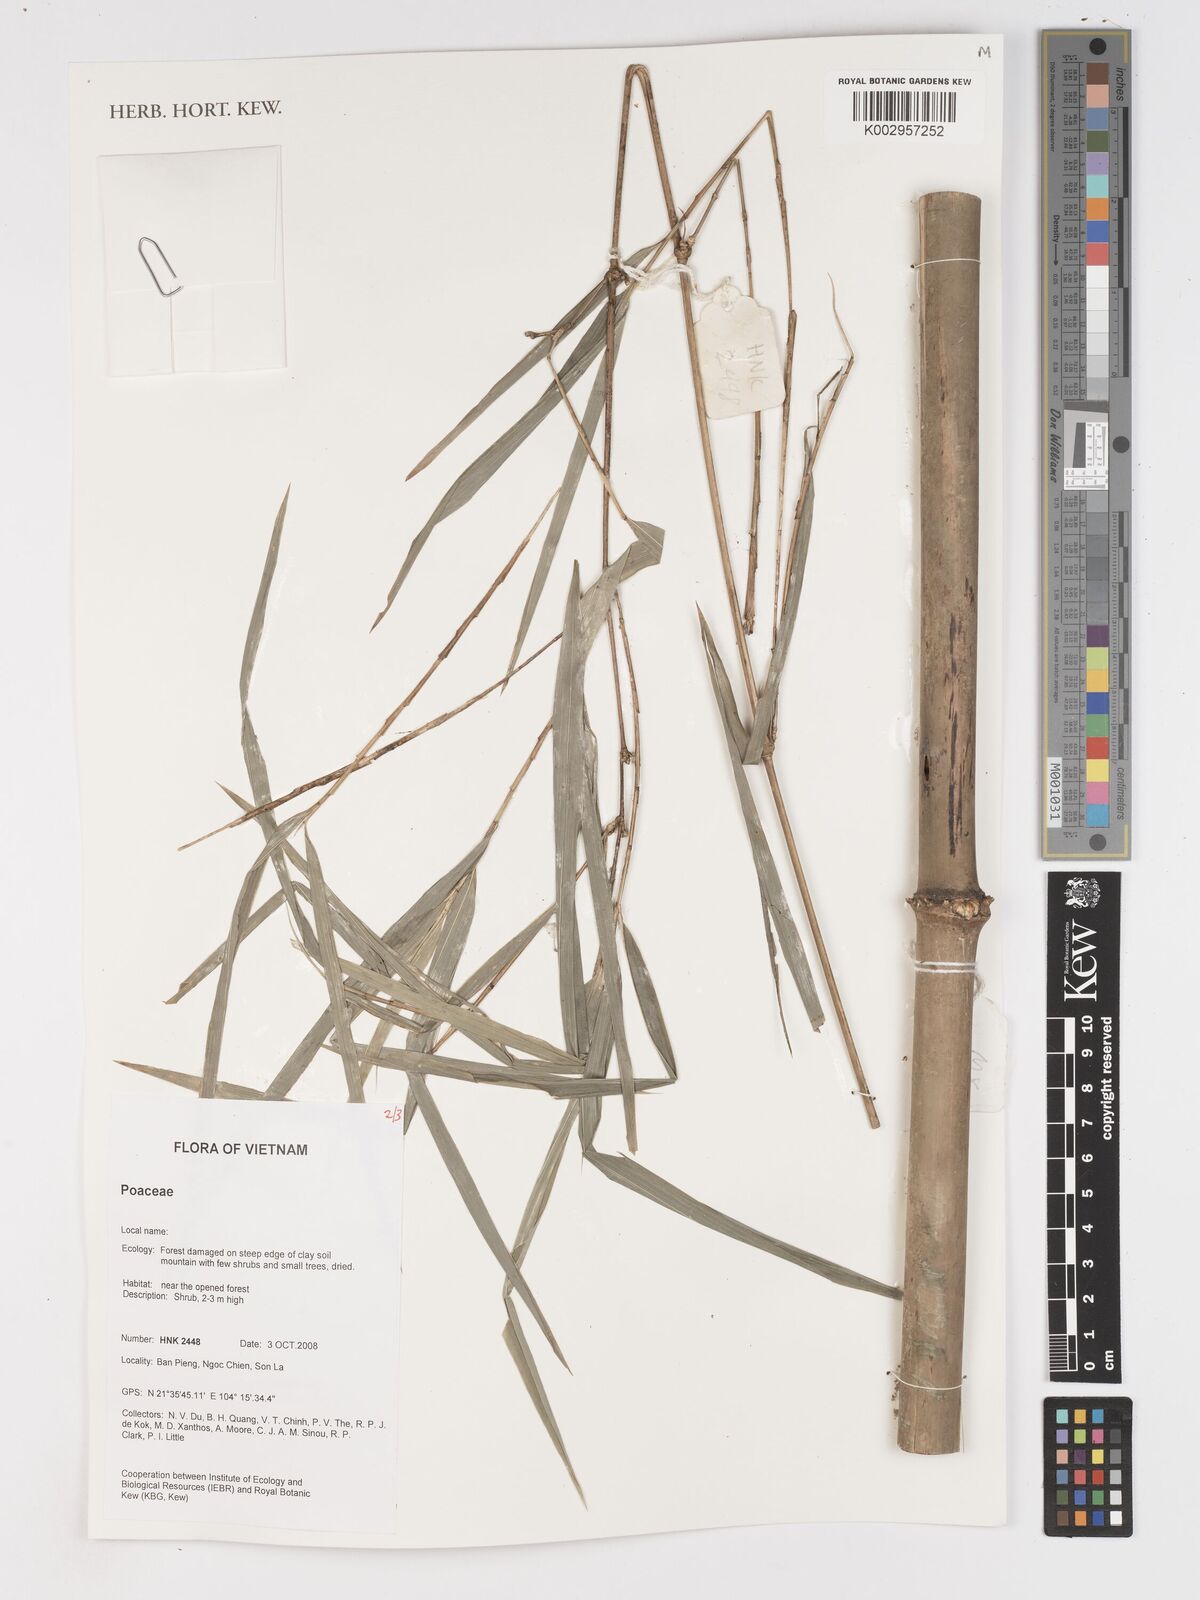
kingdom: Plantae
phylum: Tracheophyta
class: Liliopsida
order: Poales
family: Poaceae
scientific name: Poaceae
